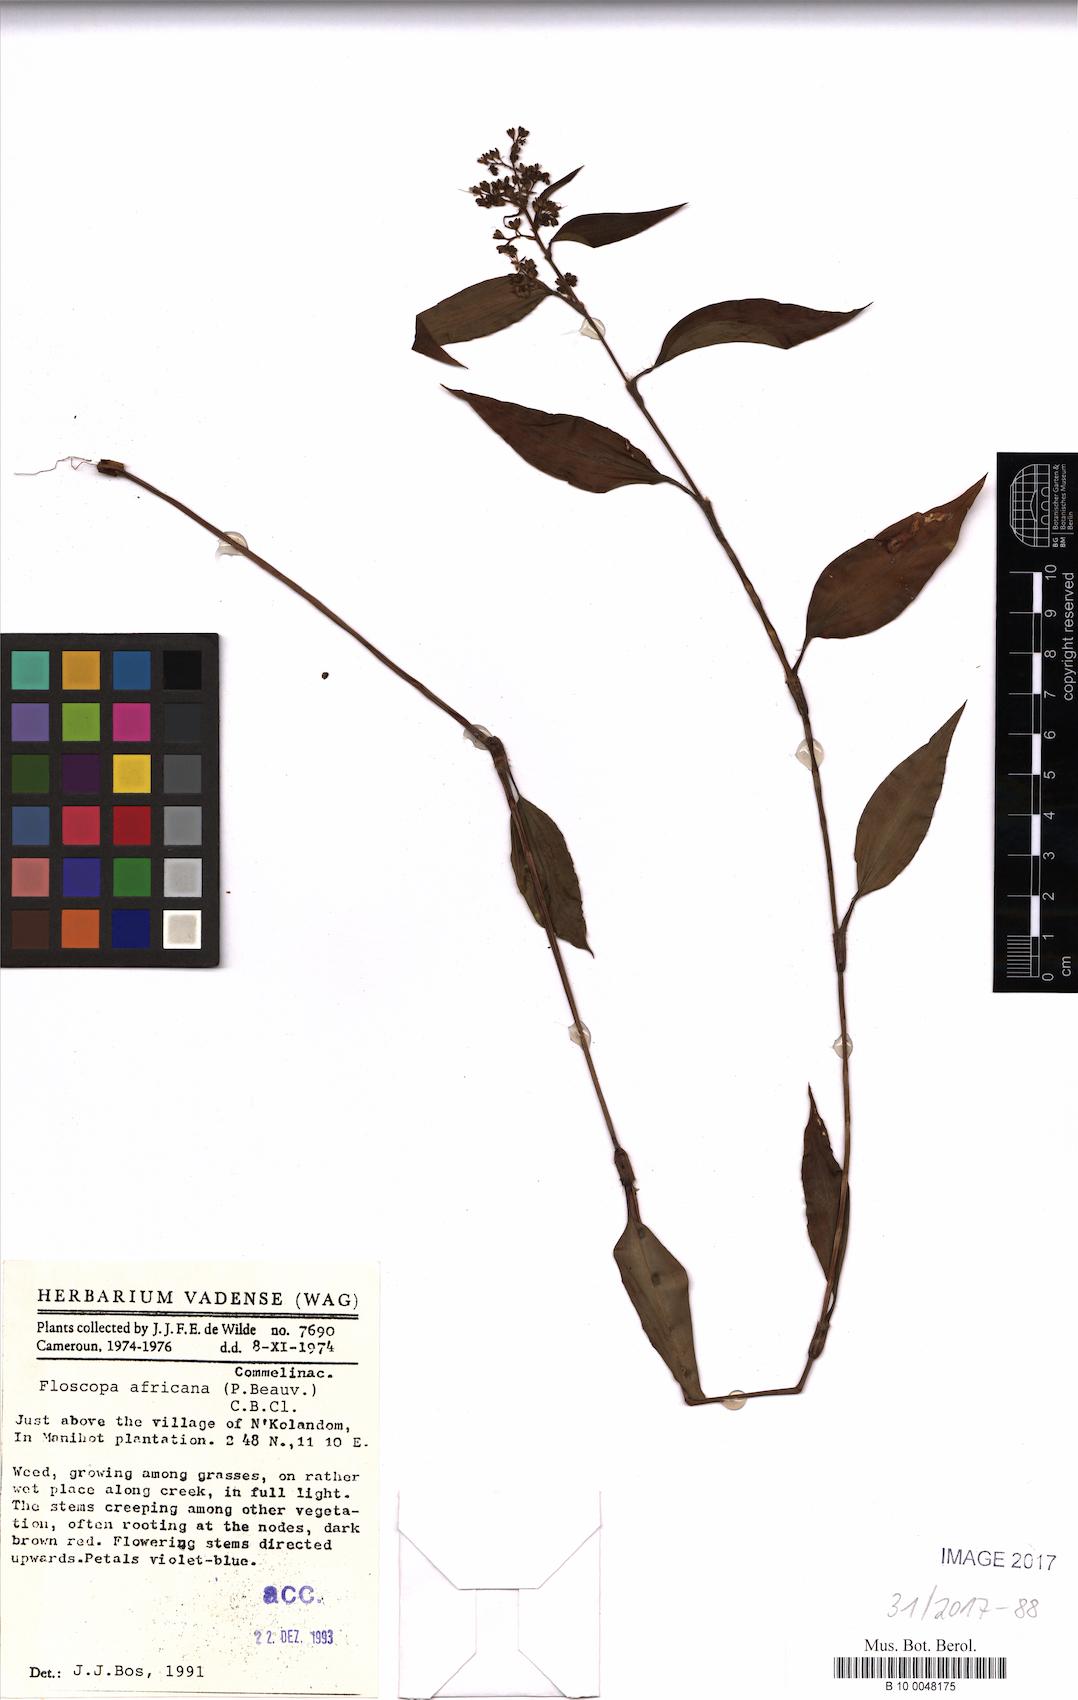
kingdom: Plantae
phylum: Tracheophyta
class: Liliopsida
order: Commelinales
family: Commelinaceae
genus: Floscopa
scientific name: Floscopa africana
